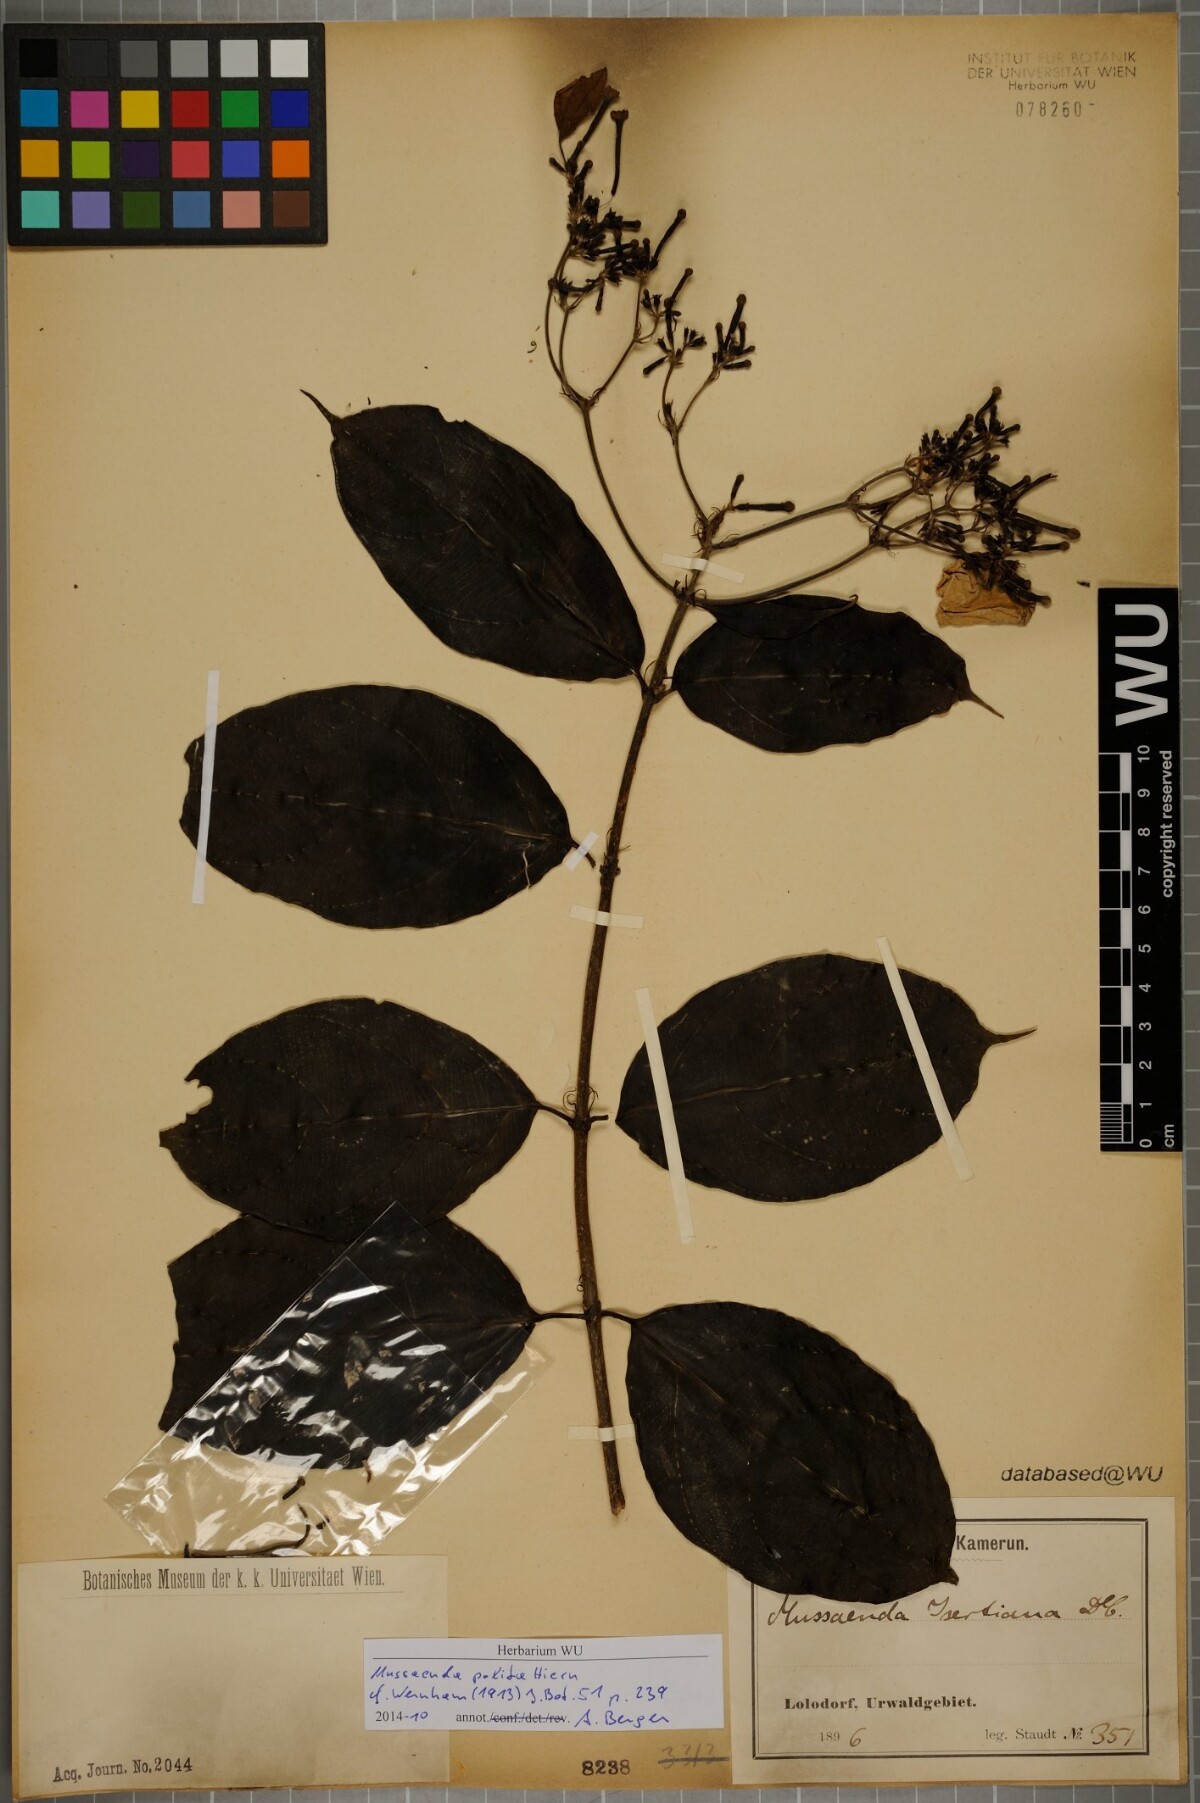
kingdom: Plantae
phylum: Tracheophyta
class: Magnoliopsida
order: Gentianales
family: Rubiaceae
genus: Mussaenda
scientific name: Mussaenda polita
